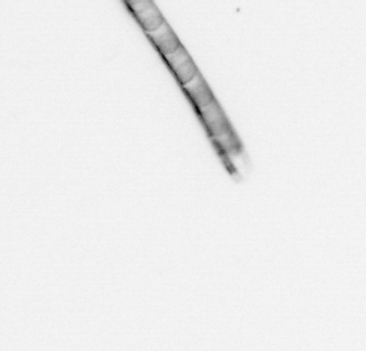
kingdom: Chromista
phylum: Ochrophyta
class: Bacillariophyceae
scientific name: Bacillariophyceae
